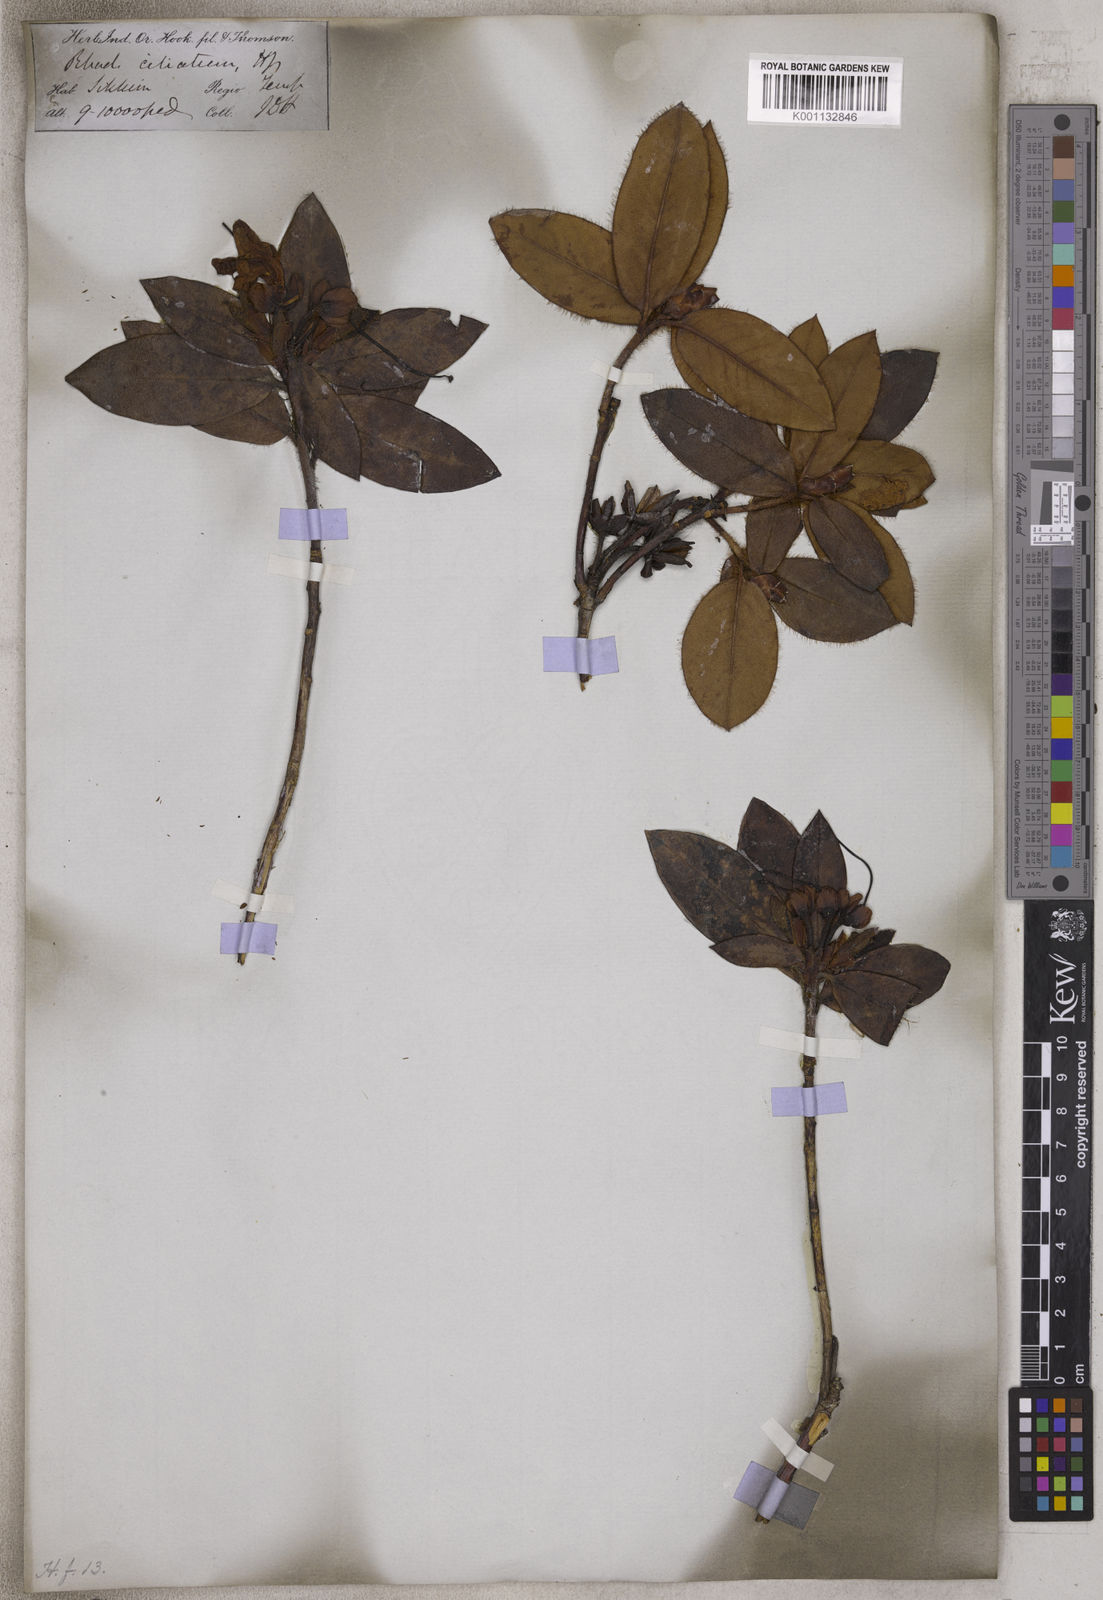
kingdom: Plantae
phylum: Tracheophyta
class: Magnoliopsida
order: Ericales
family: Ericaceae
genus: Rhododendron
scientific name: Rhododendron ciliatum
